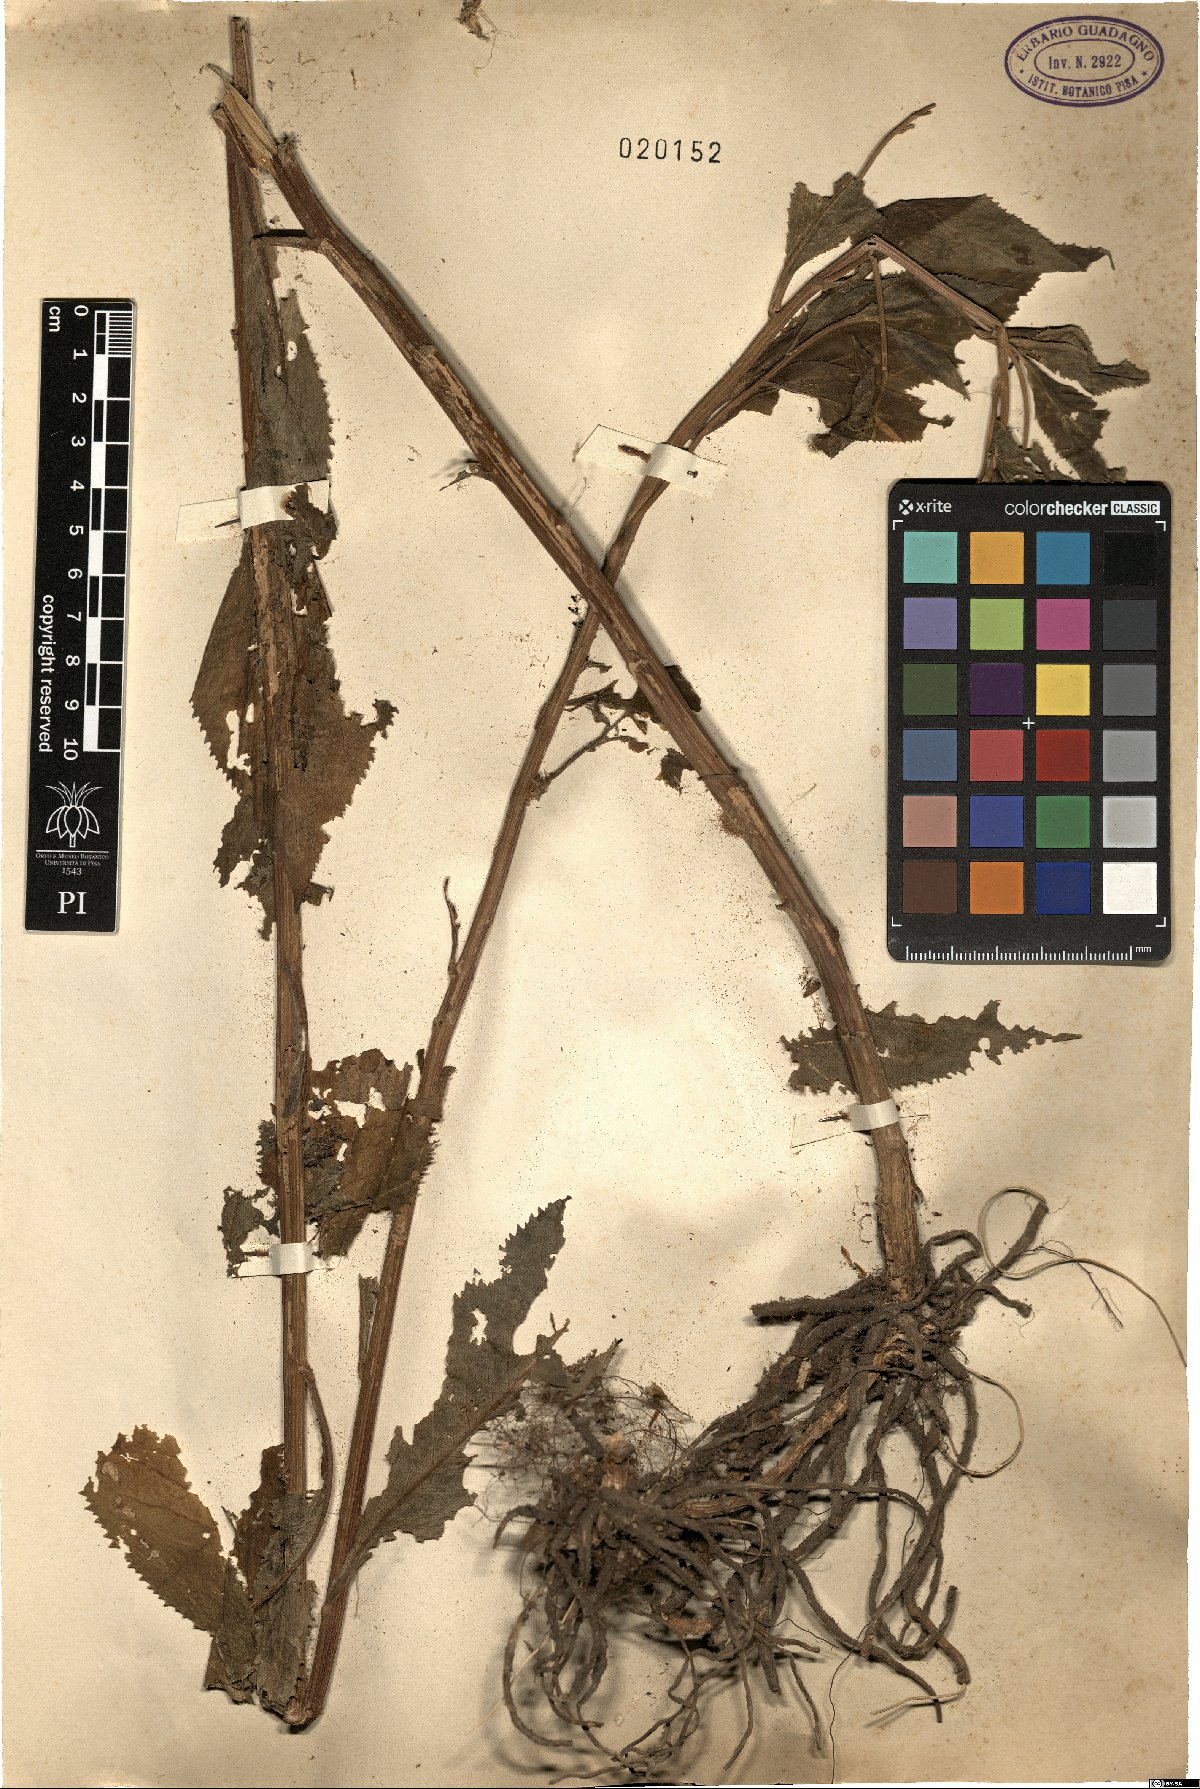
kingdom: Plantae
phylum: Tracheophyta
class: Magnoliopsida
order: Asterales
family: Asteraceae
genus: Senecio
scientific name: Senecio
